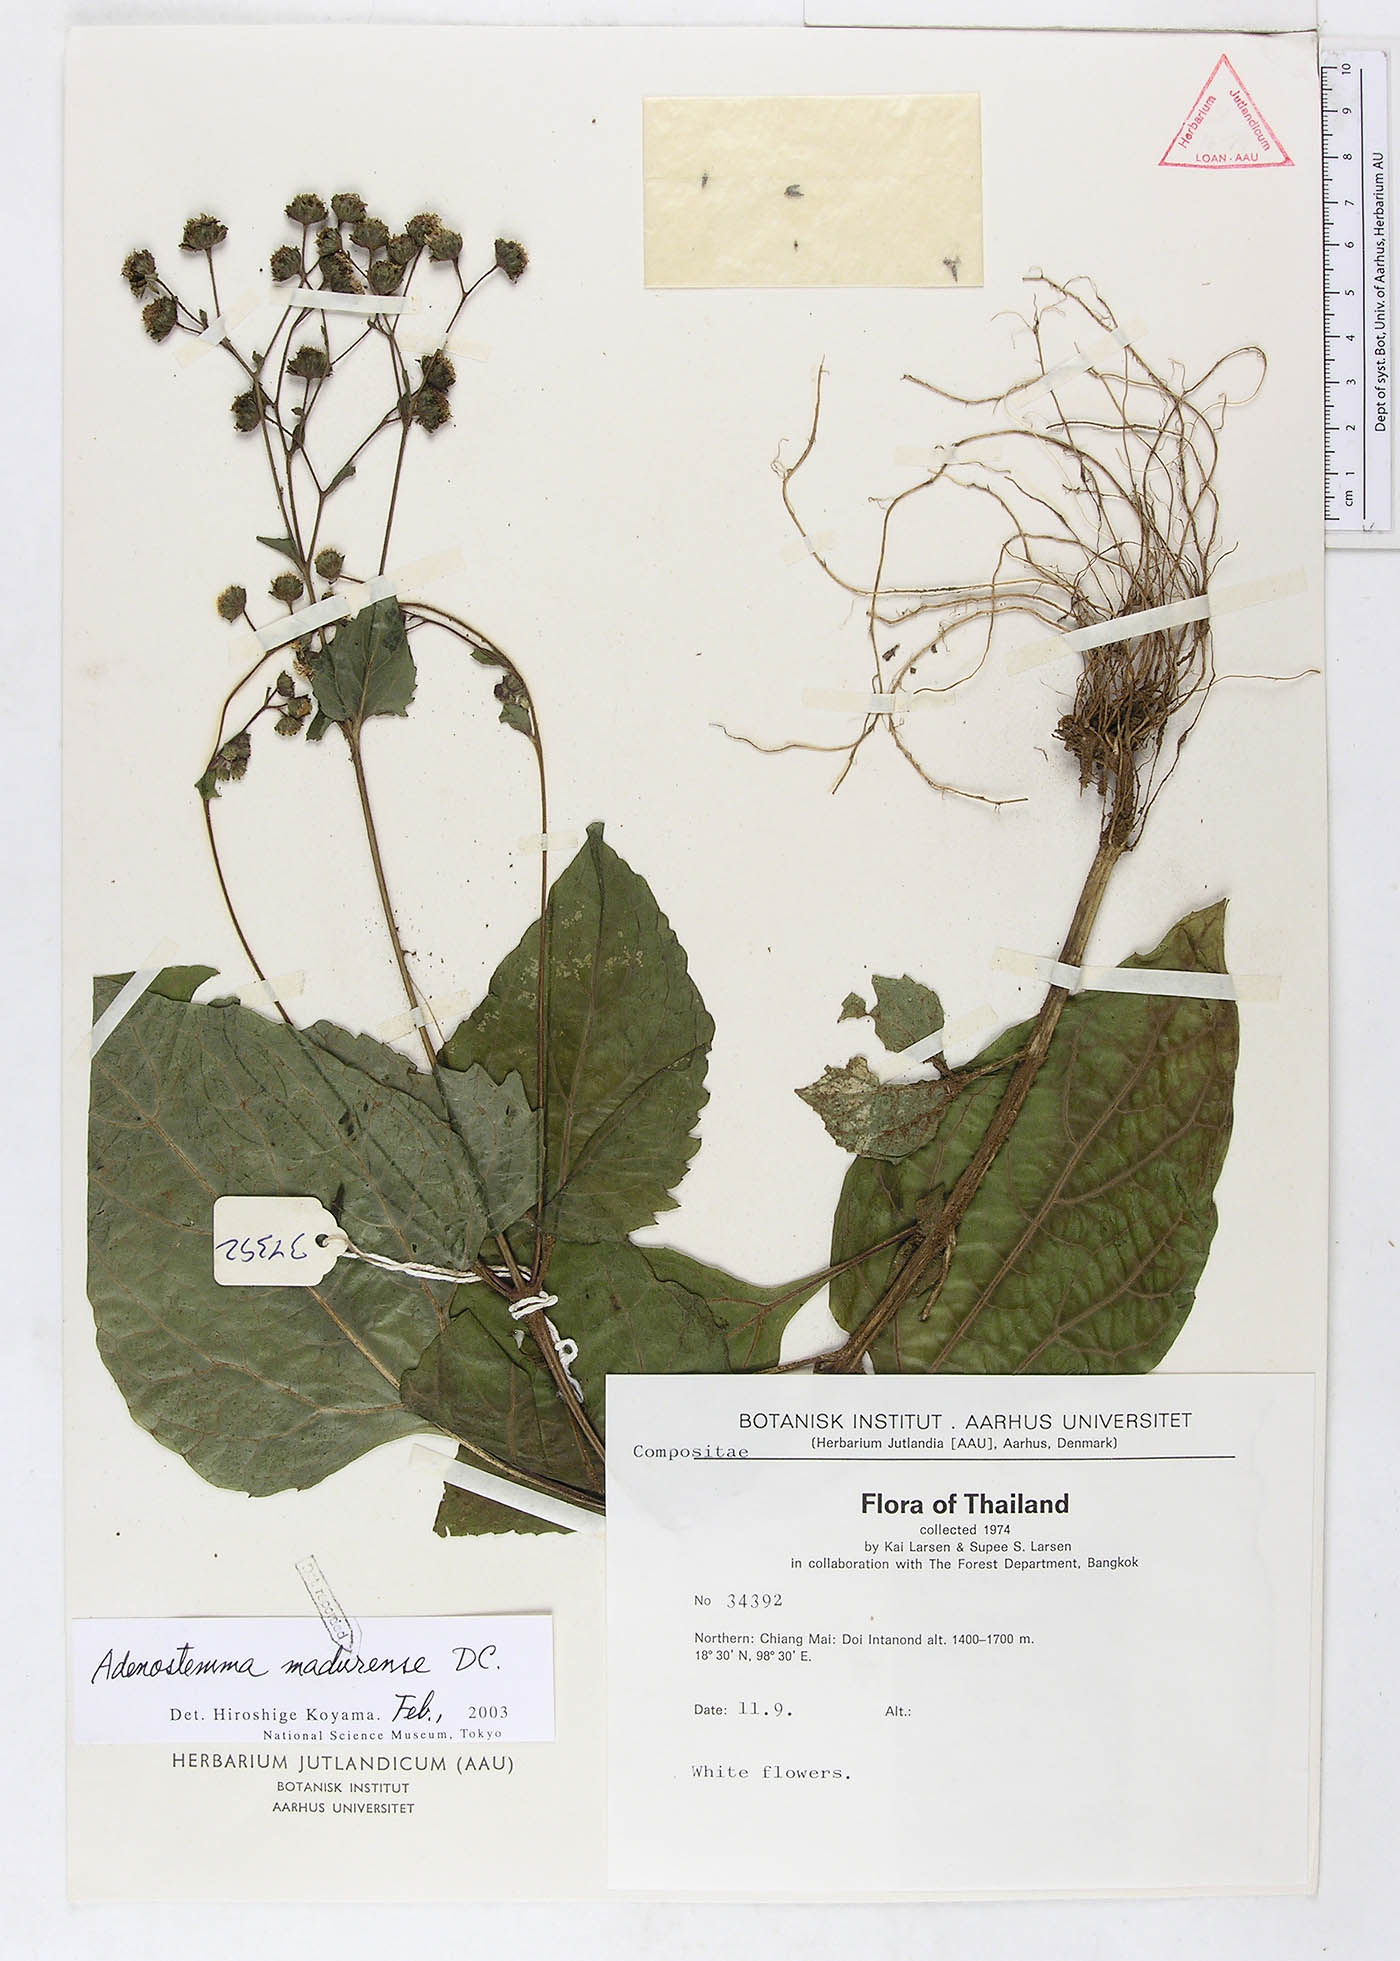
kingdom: Plantae
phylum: Tracheophyta
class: Magnoliopsida
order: Asterales
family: Asteraceae
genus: Adenostemma
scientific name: Adenostemma madurense
